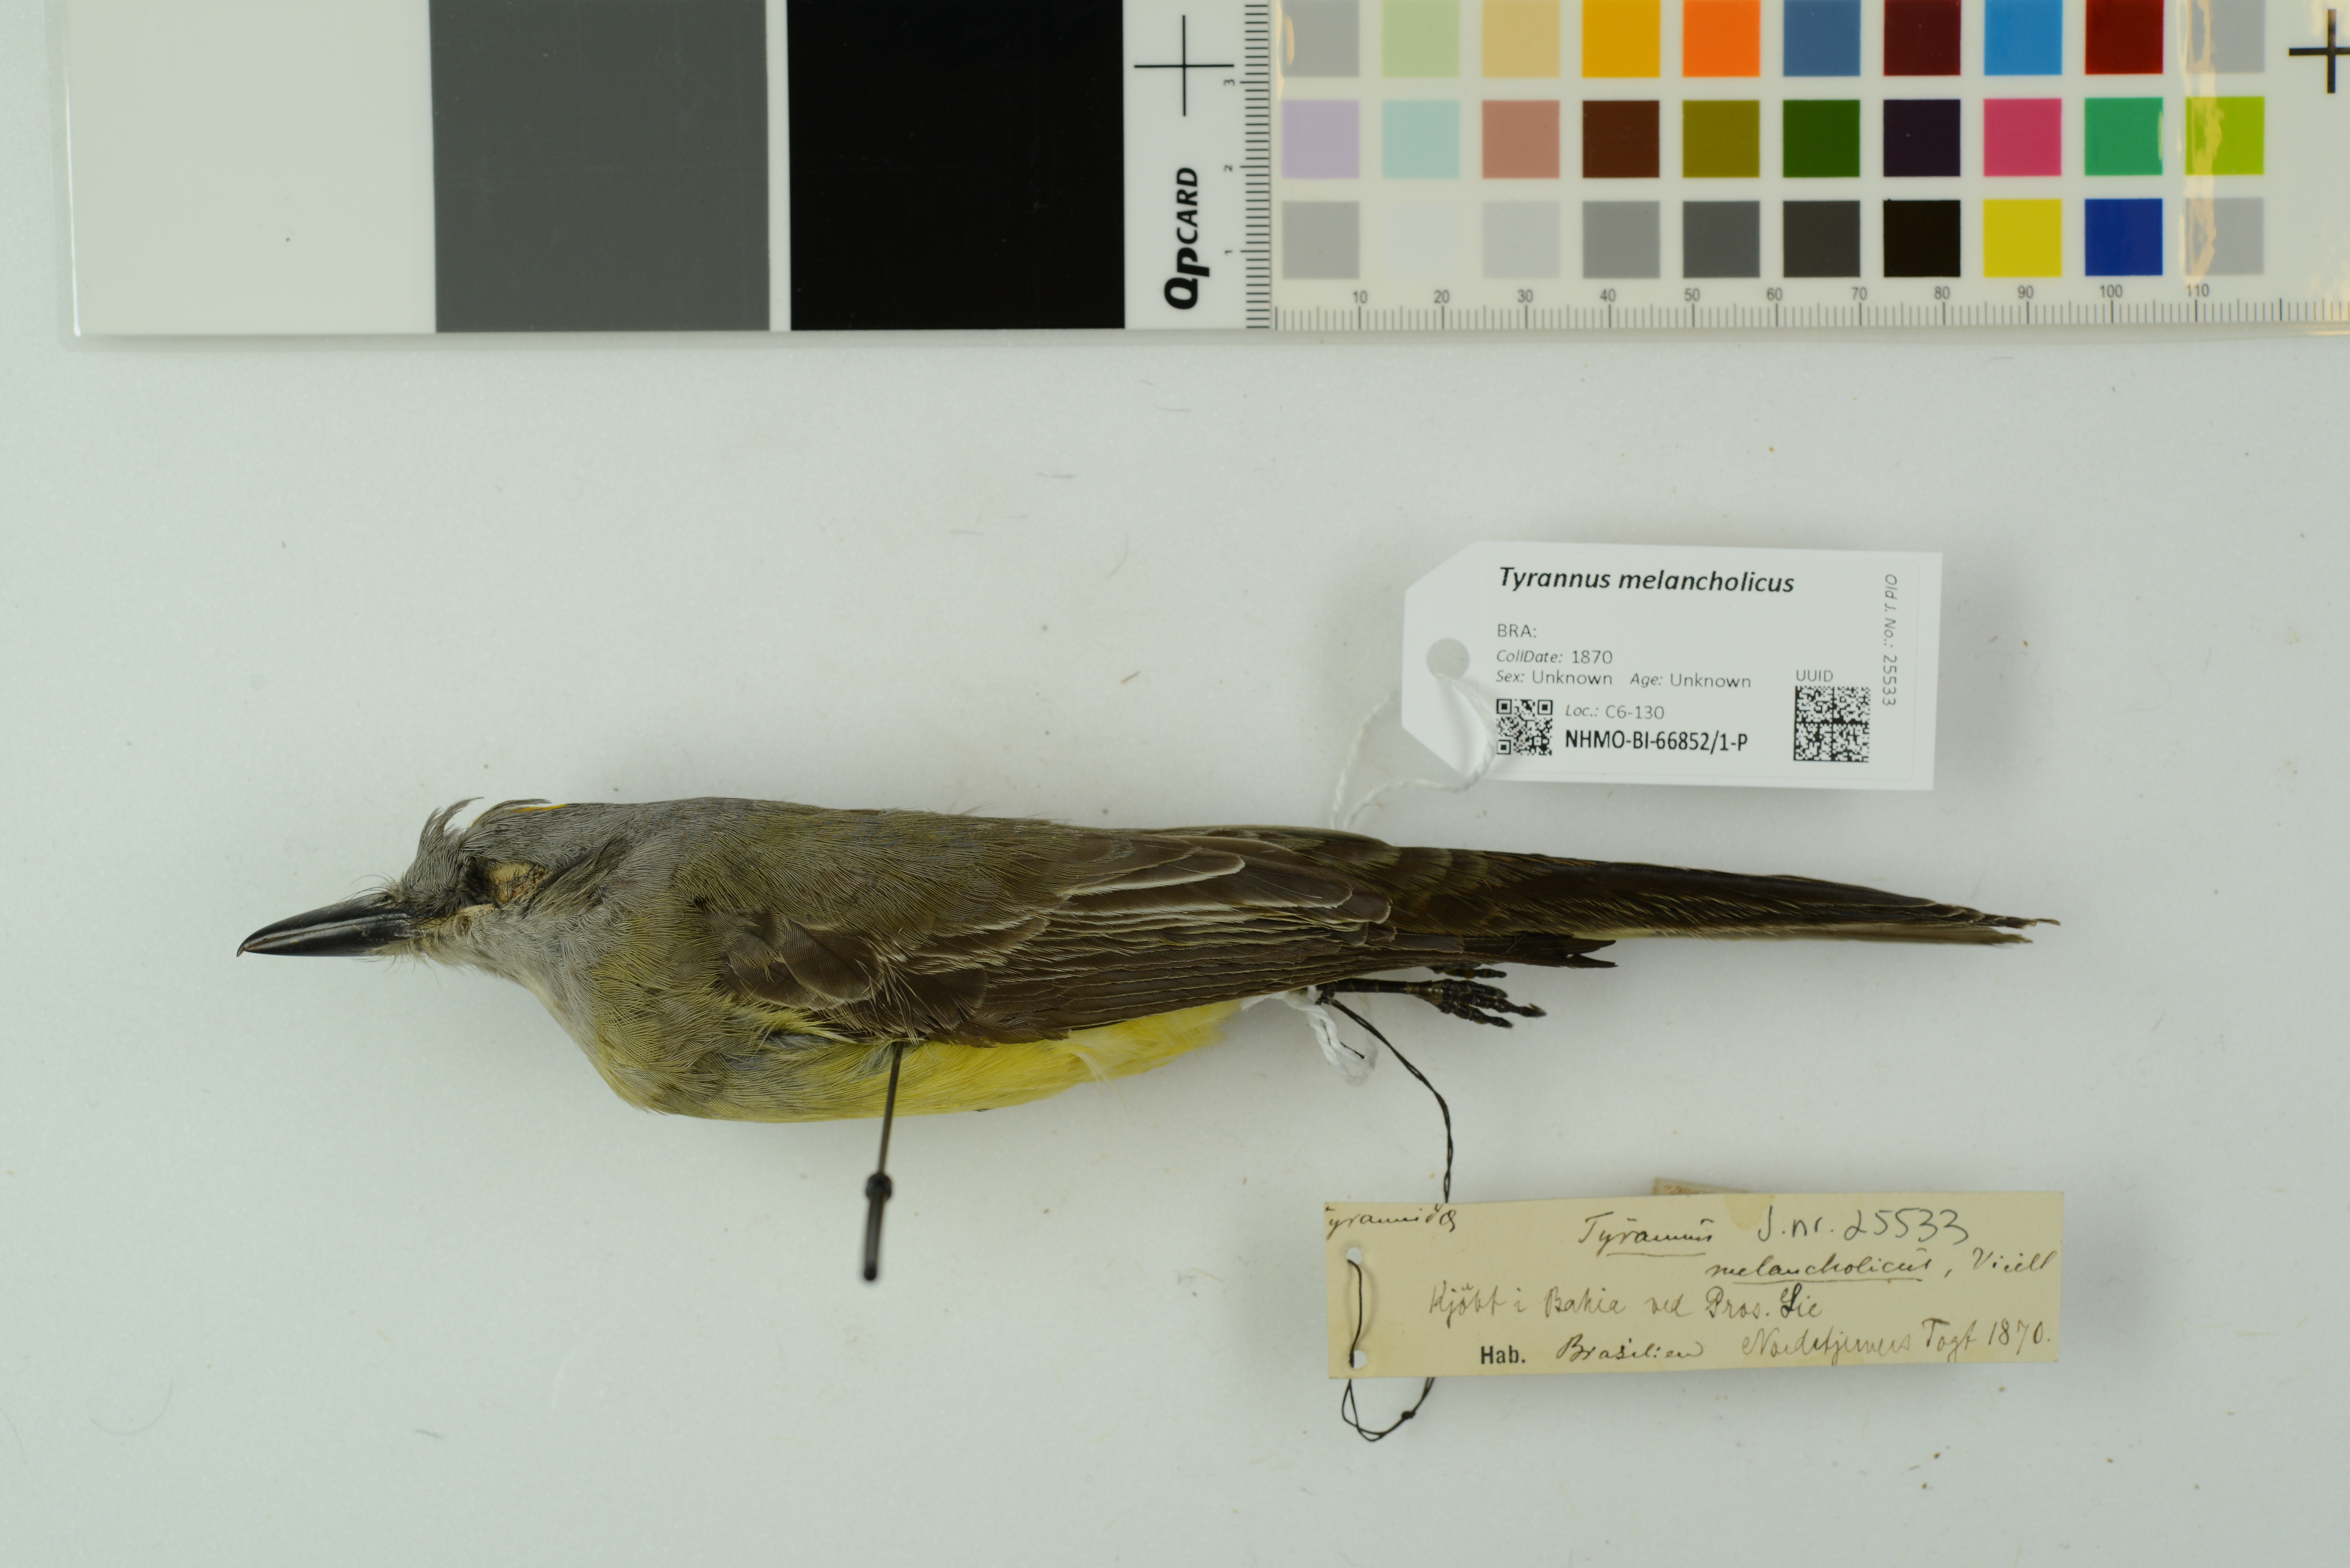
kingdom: Animalia
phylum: Chordata
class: Aves
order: Passeriformes
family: Tyrannidae
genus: Tyrannus
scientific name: Tyrannus melancholicus
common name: Tropical kingbird
